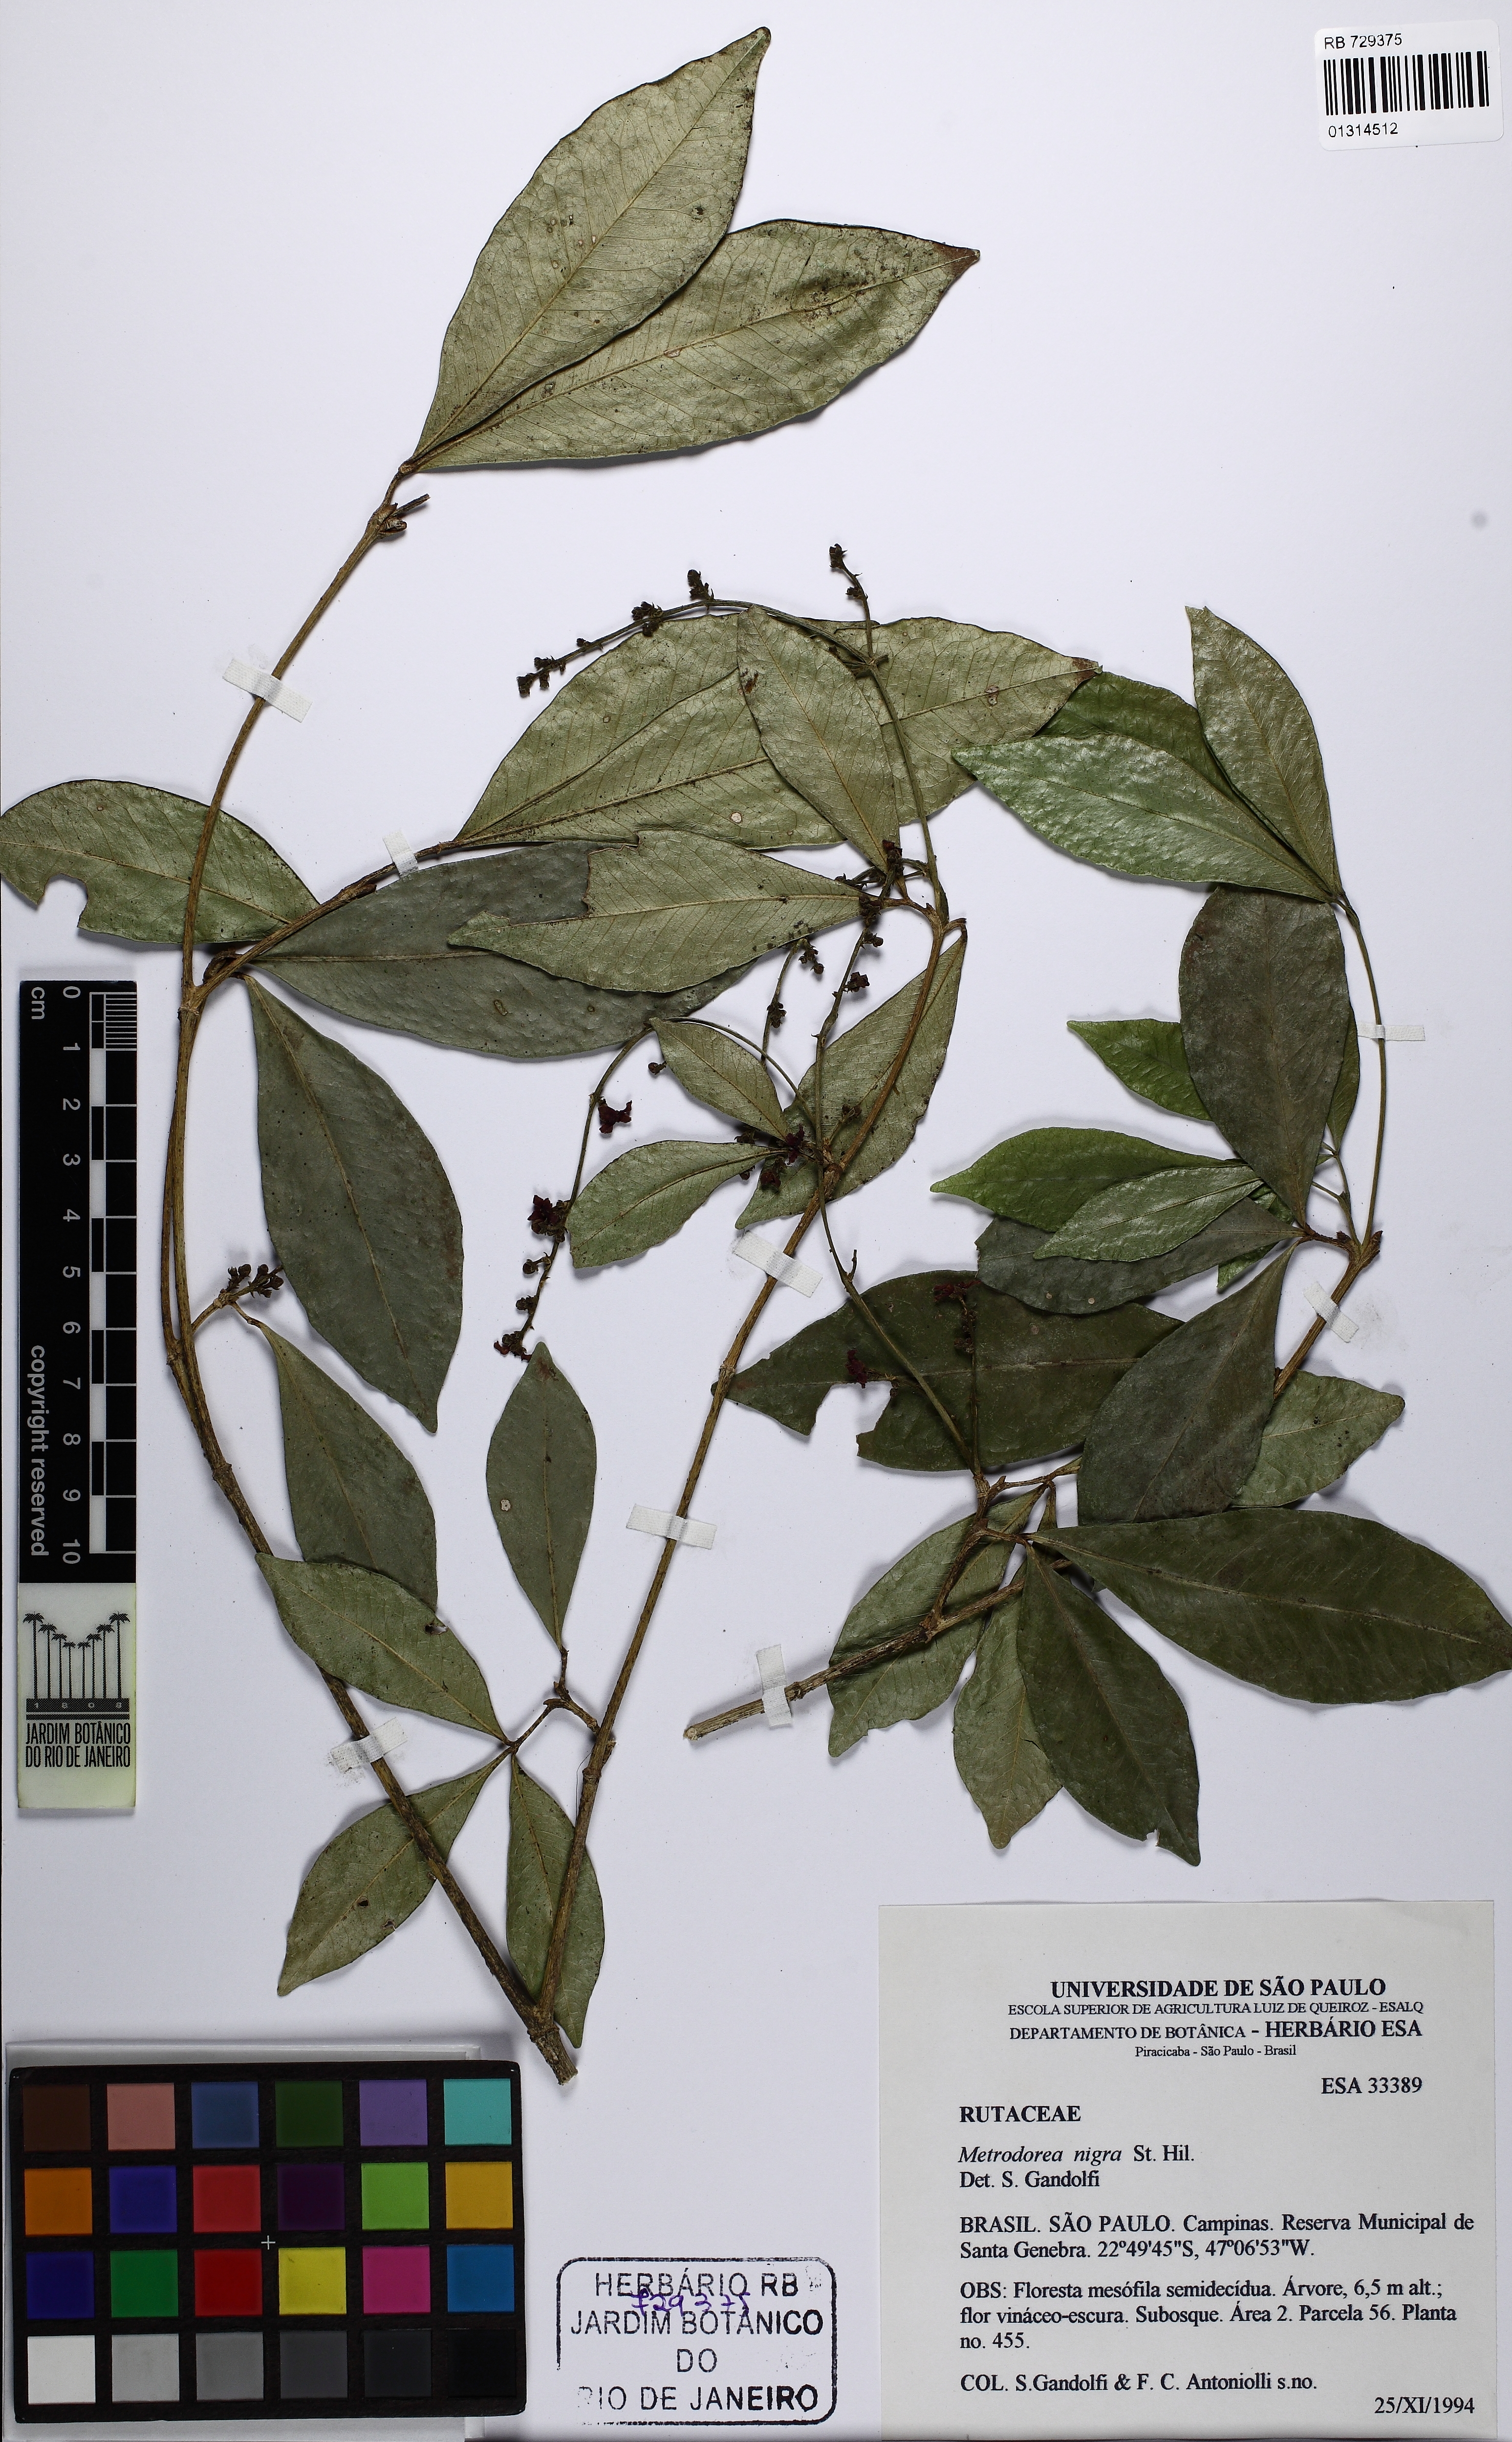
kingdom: Plantae
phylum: Tracheophyta
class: Magnoliopsida
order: Sapindales
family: Rutaceae
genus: Metrodorea
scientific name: Metrodorea nigra
